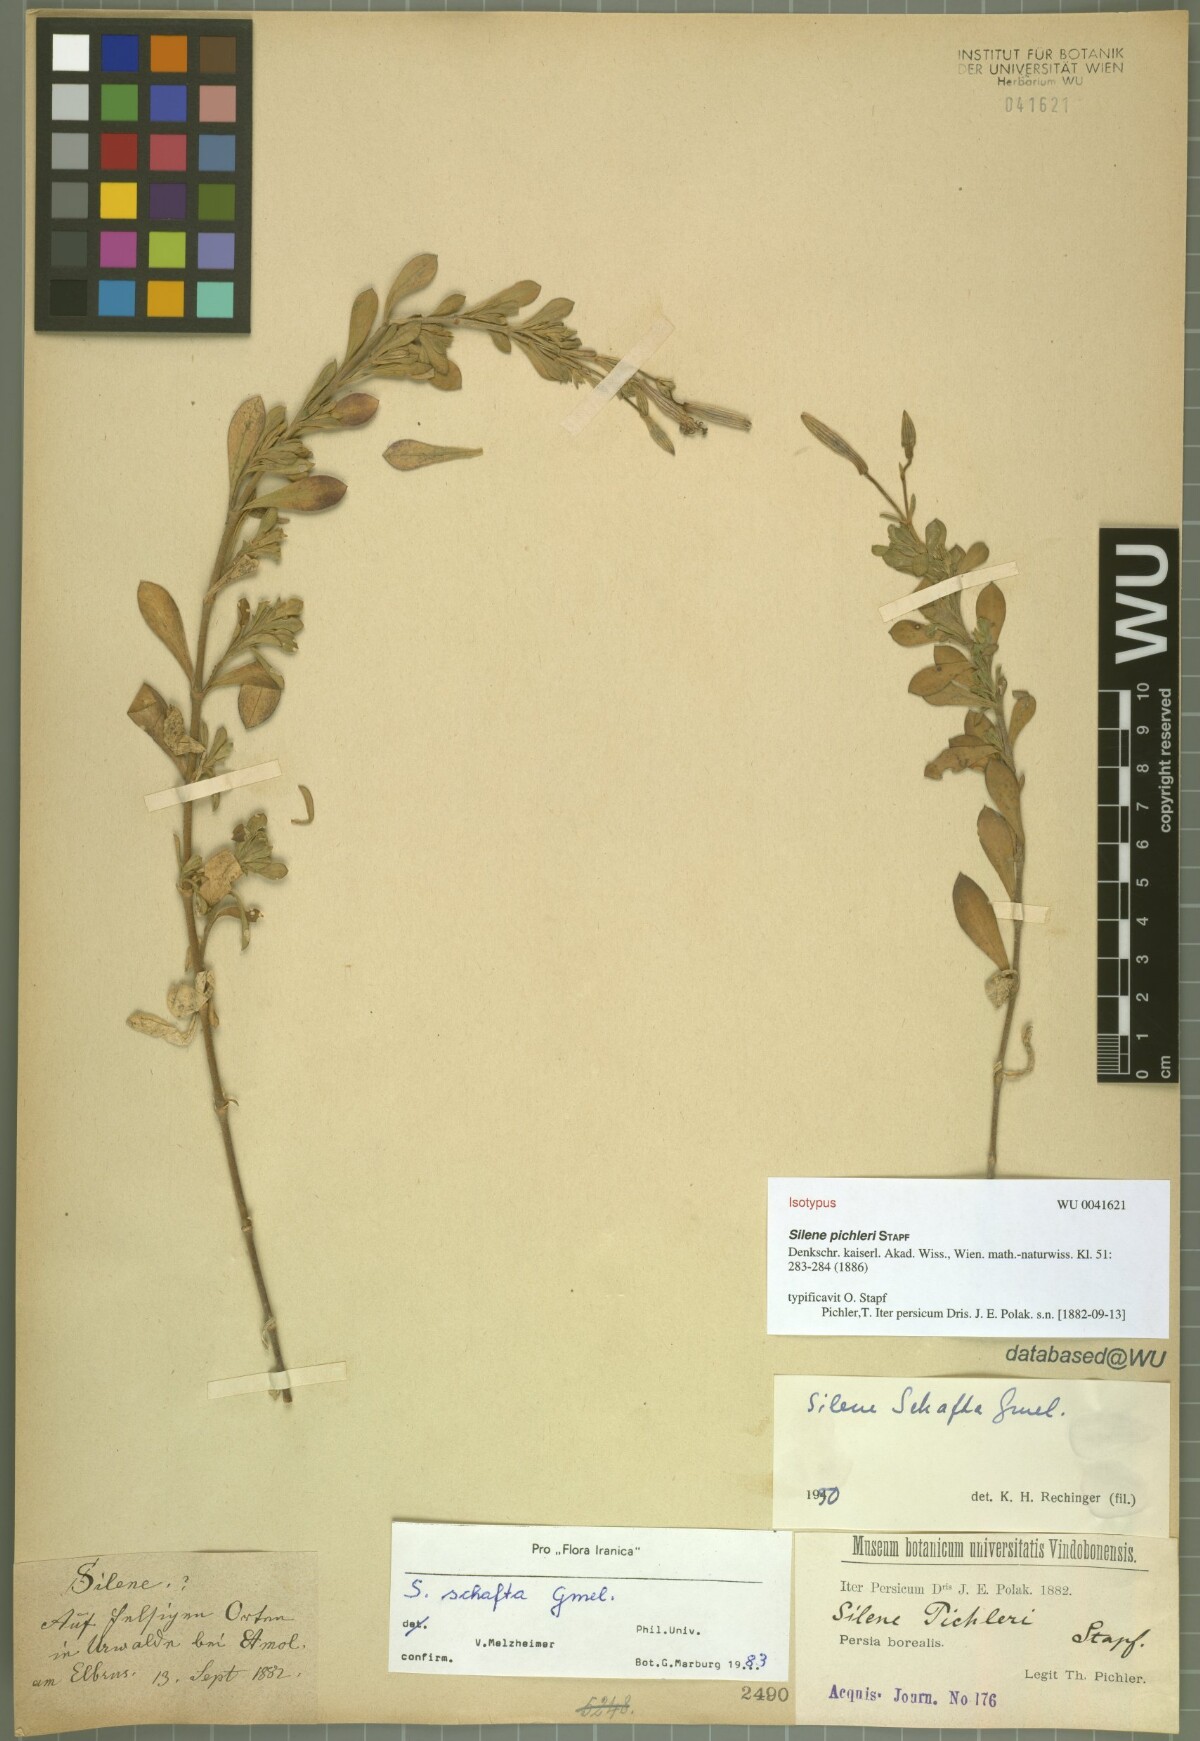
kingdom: Plantae
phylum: Tracheophyta
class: Magnoliopsida
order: Caryophyllales
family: Caryophyllaceae
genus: Silene
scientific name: Silene schafta
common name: Caucasian campion
